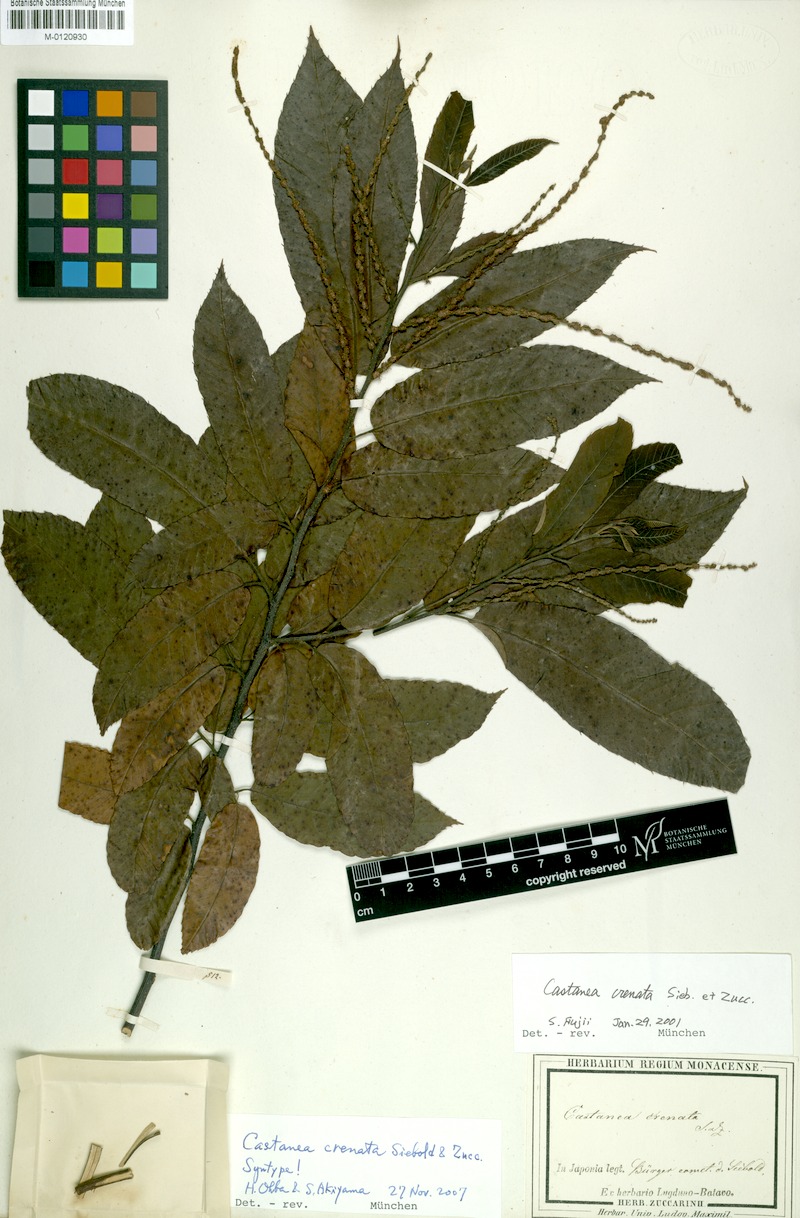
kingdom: Plantae
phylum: Tracheophyta
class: Magnoliopsida
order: Fagales
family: Fagaceae
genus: Castanea
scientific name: Castanea crenata
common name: Japanese chestnut
